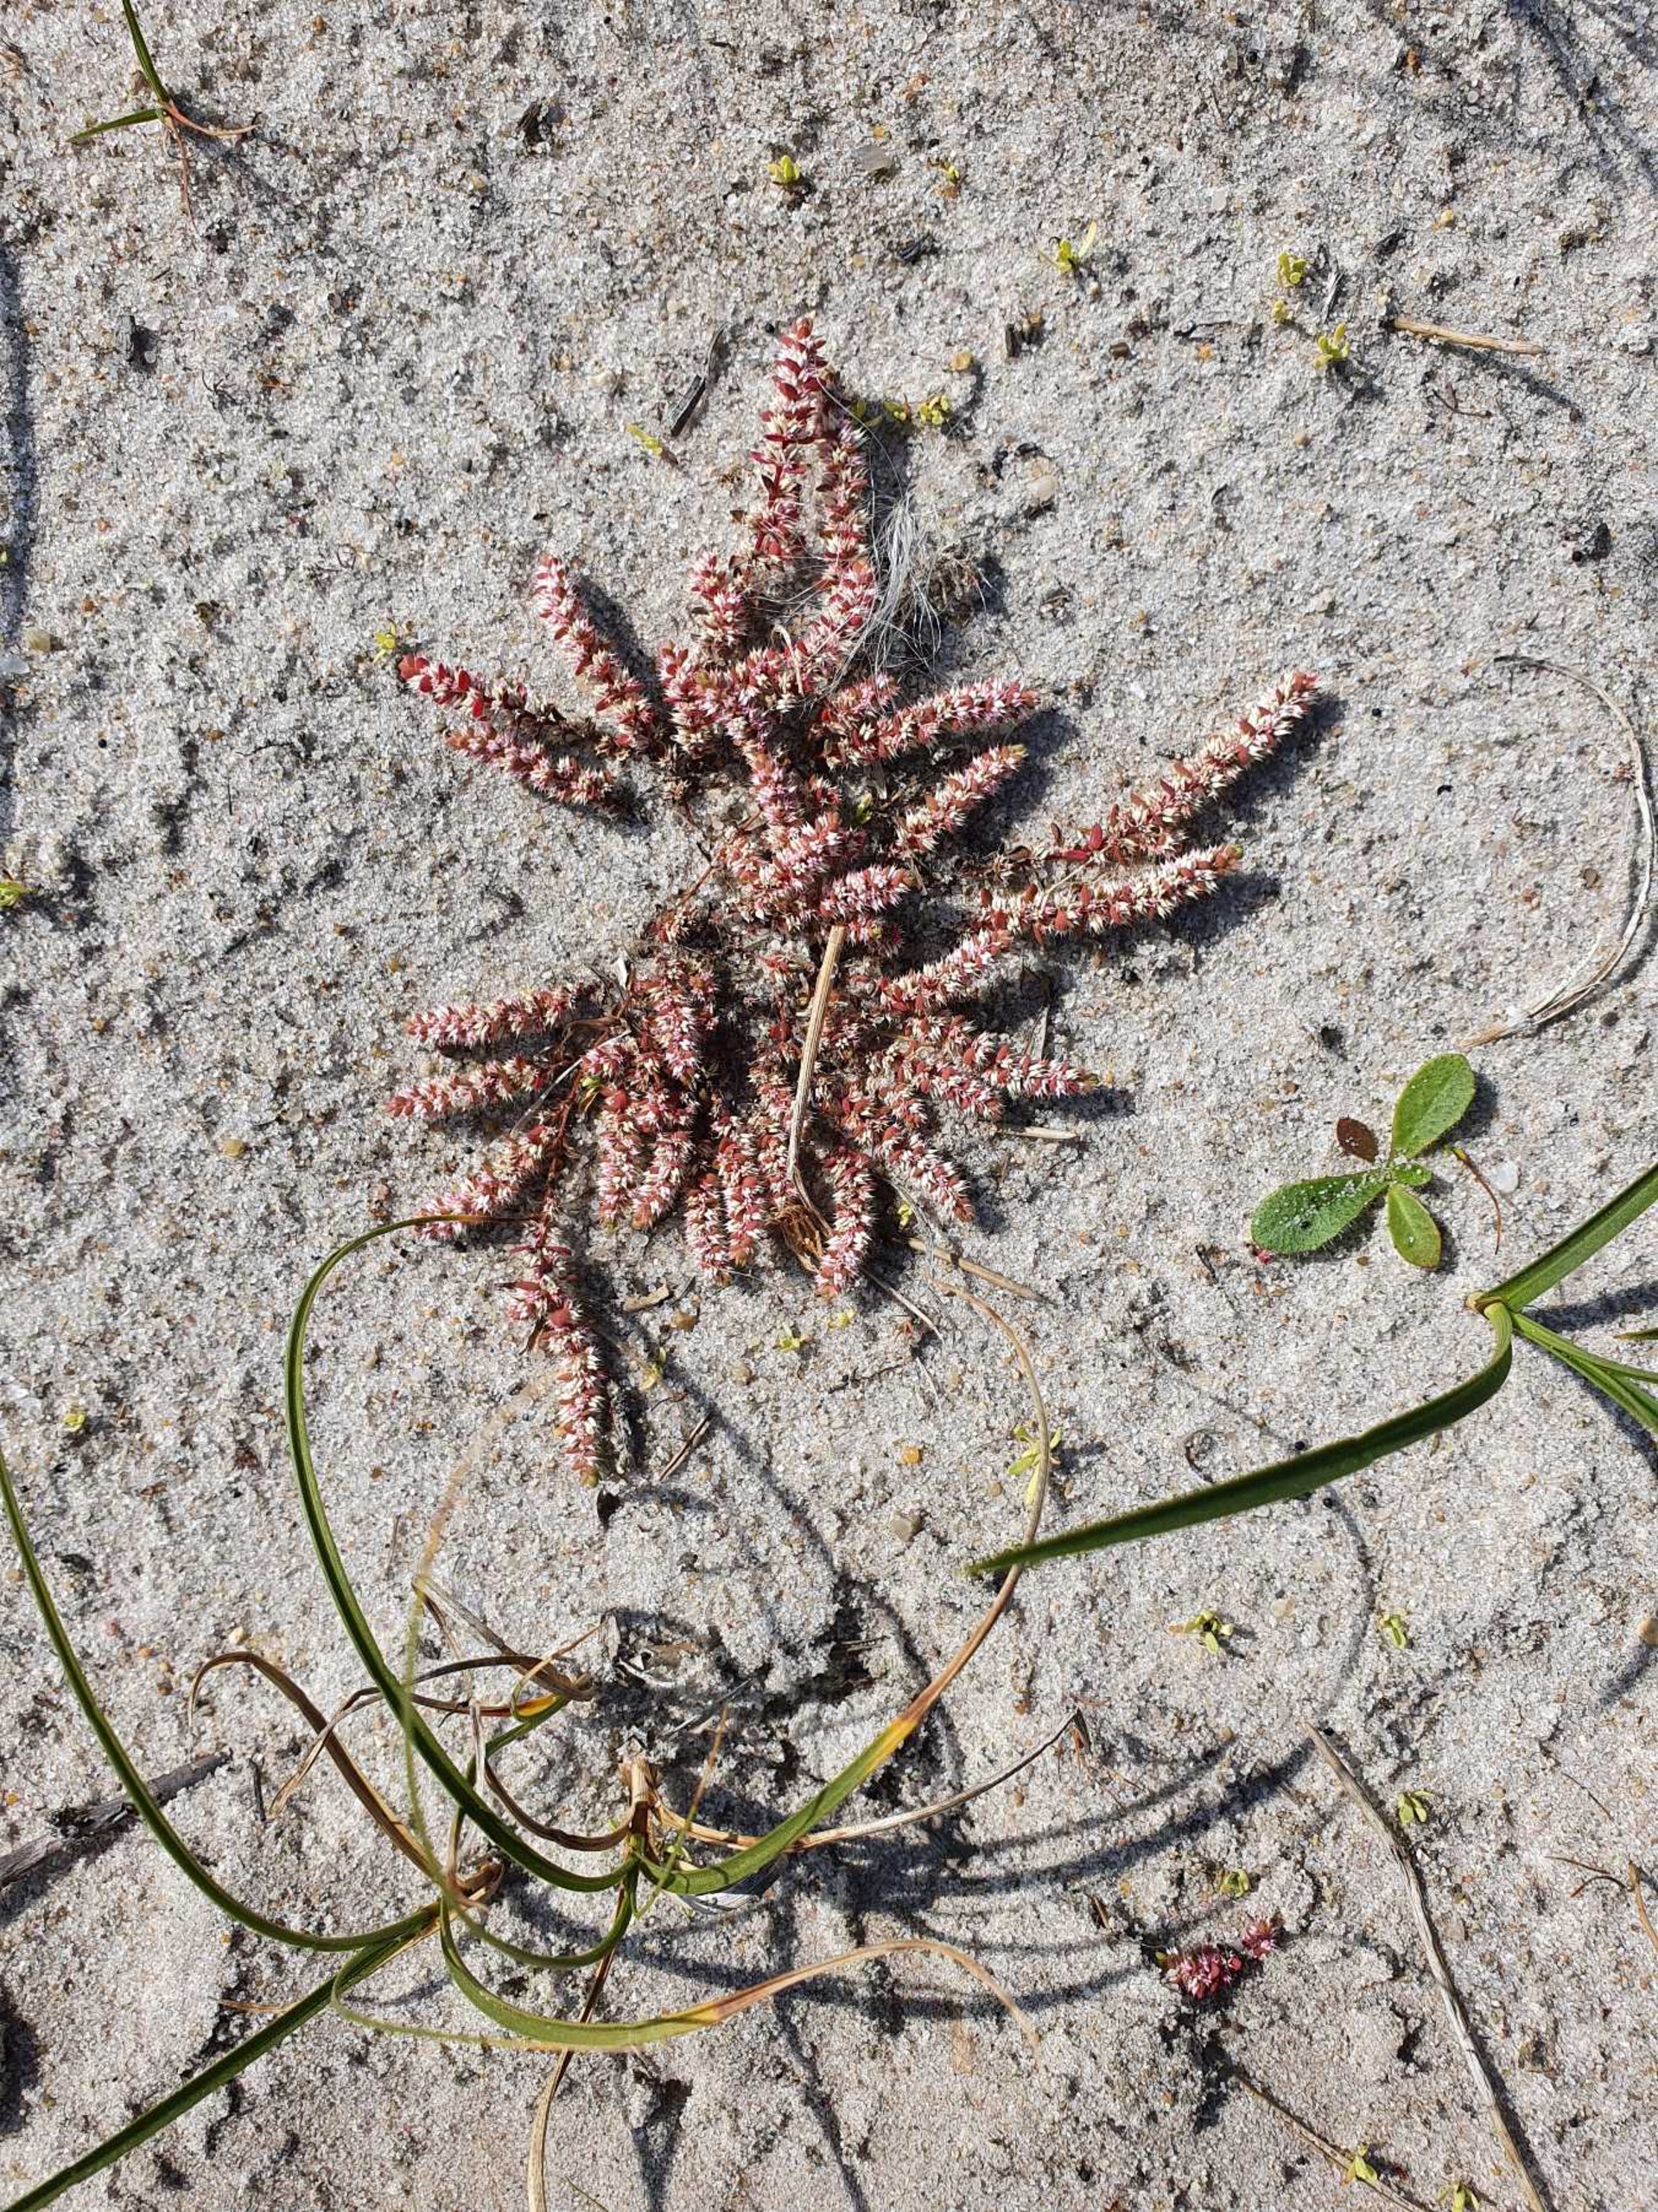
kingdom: Plantae
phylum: Tracheophyta
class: Magnoliopsida
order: Caryophyllales
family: Caryophyllaceae
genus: Illecebrum
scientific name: Illecebrum verticillatum
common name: Bruskbæger
